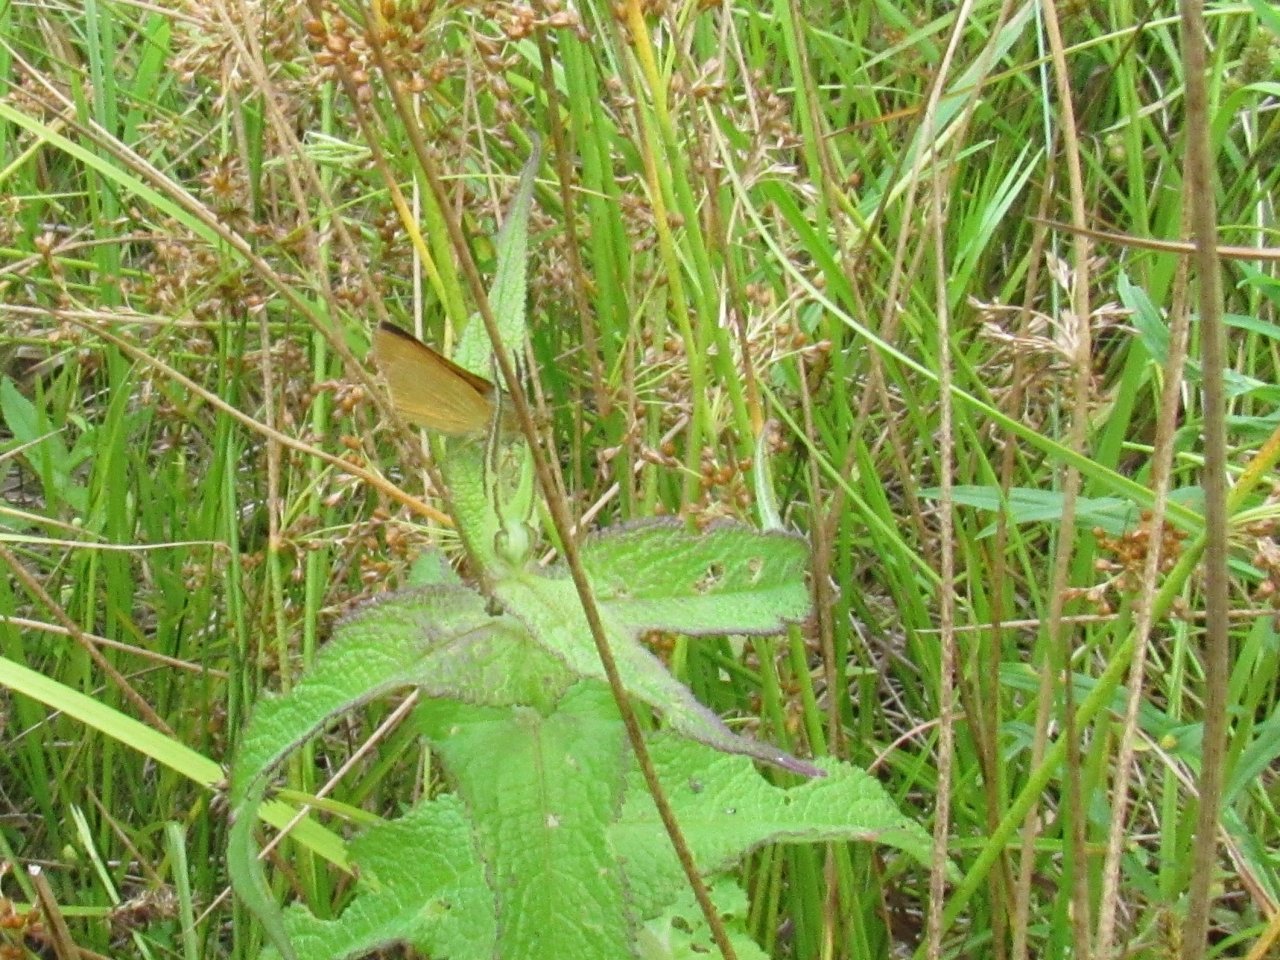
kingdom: Animalia
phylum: Arthropoda
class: Insecta
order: Lepidoptera
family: Hesperiidae
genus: Atrytone
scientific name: Atrytone delaware
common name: Delaware Skipper
